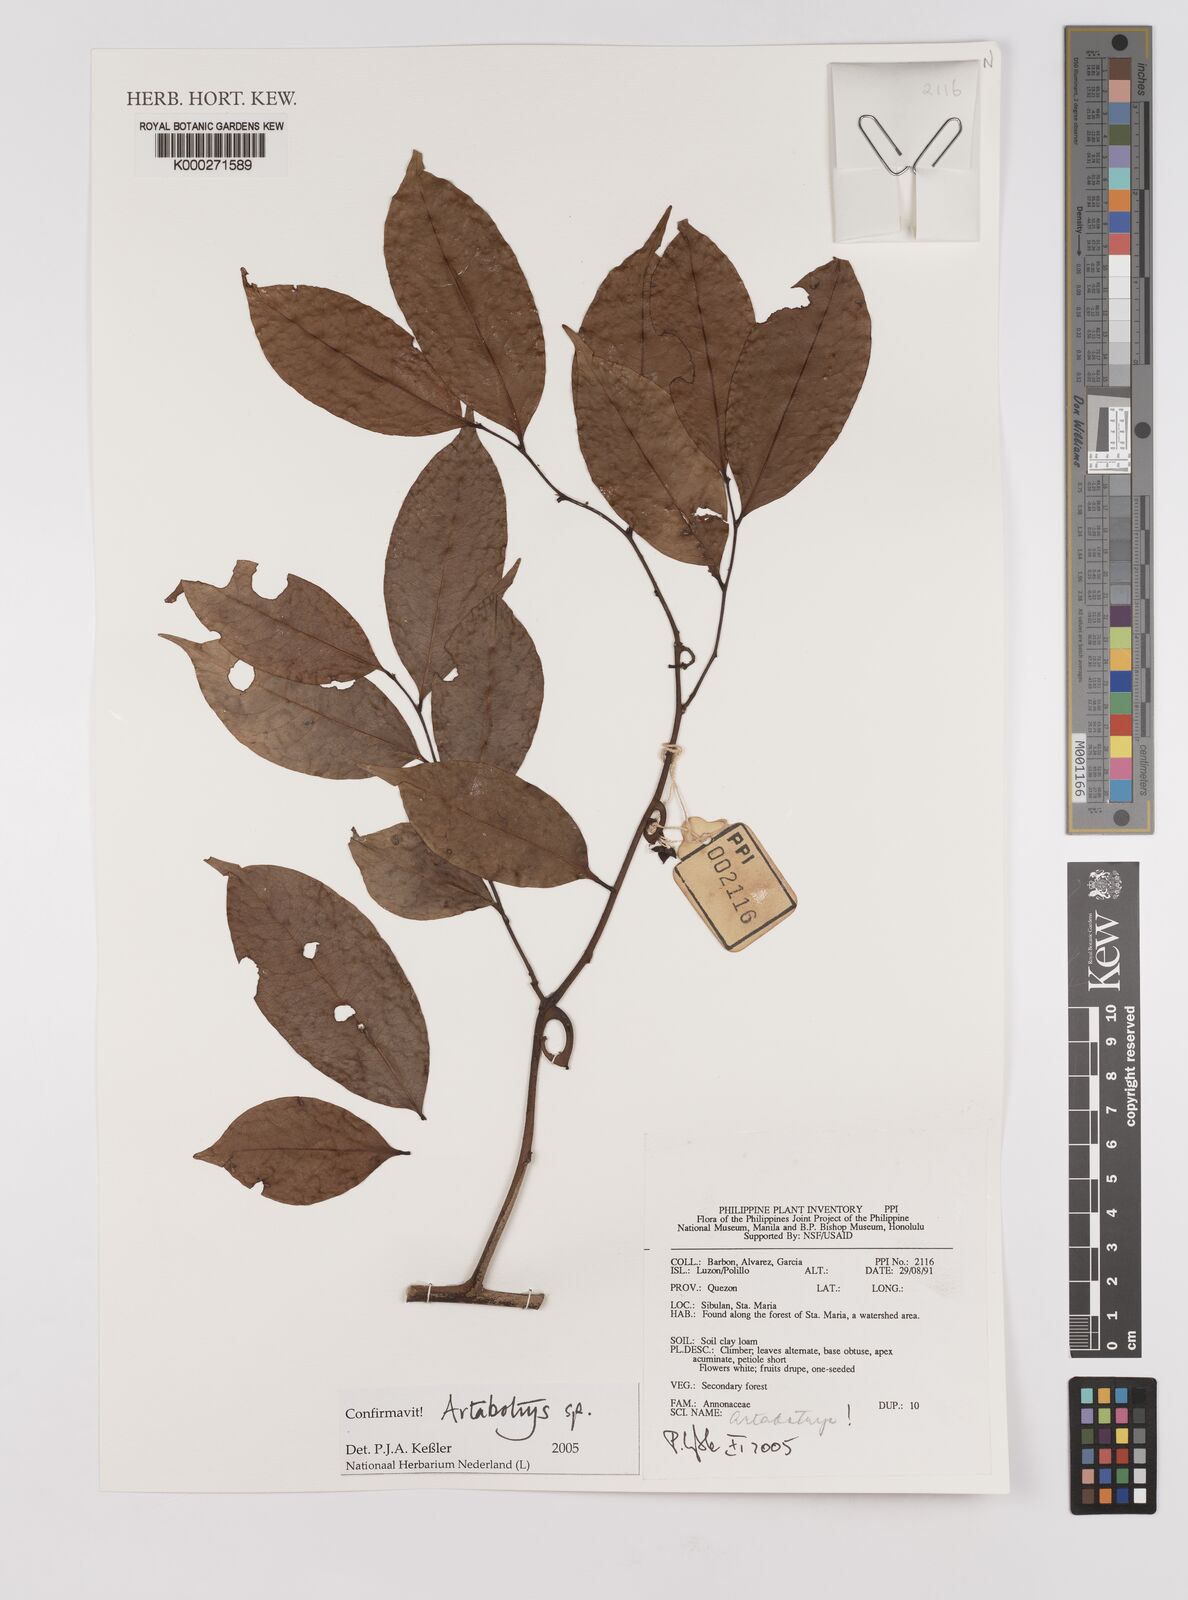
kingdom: Plantae
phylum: Tracheophyta
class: Magnoliopsida
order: Magnoliales
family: Annonaceae
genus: Artabotrys
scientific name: Artabotrys
